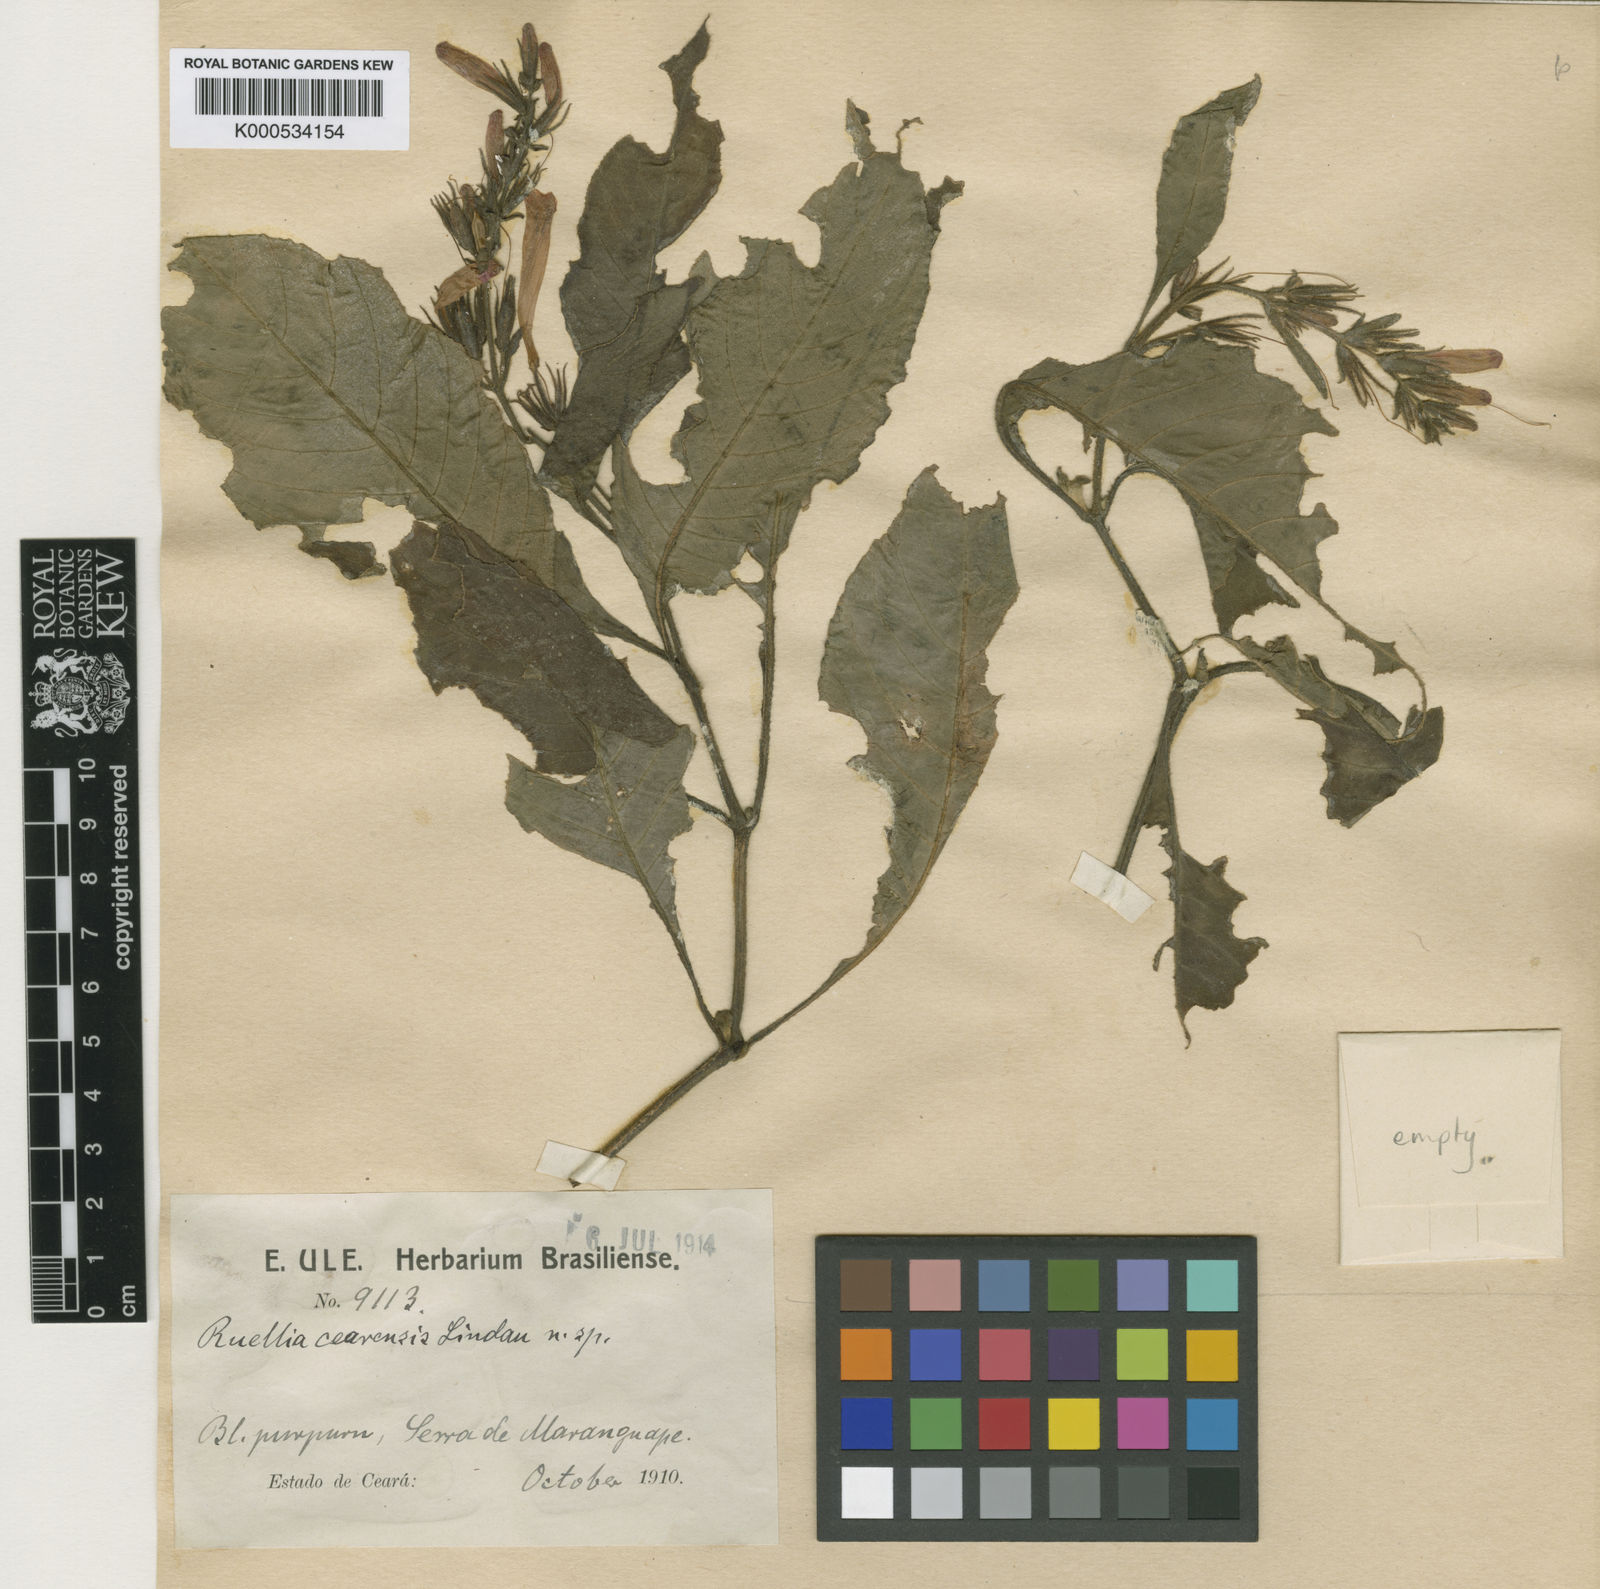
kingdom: Plantae
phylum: Tracheophyta
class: Magnoliopsida
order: Lamiales
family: Acanthaceae
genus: Ruellia
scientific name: Ruellia cearensis
